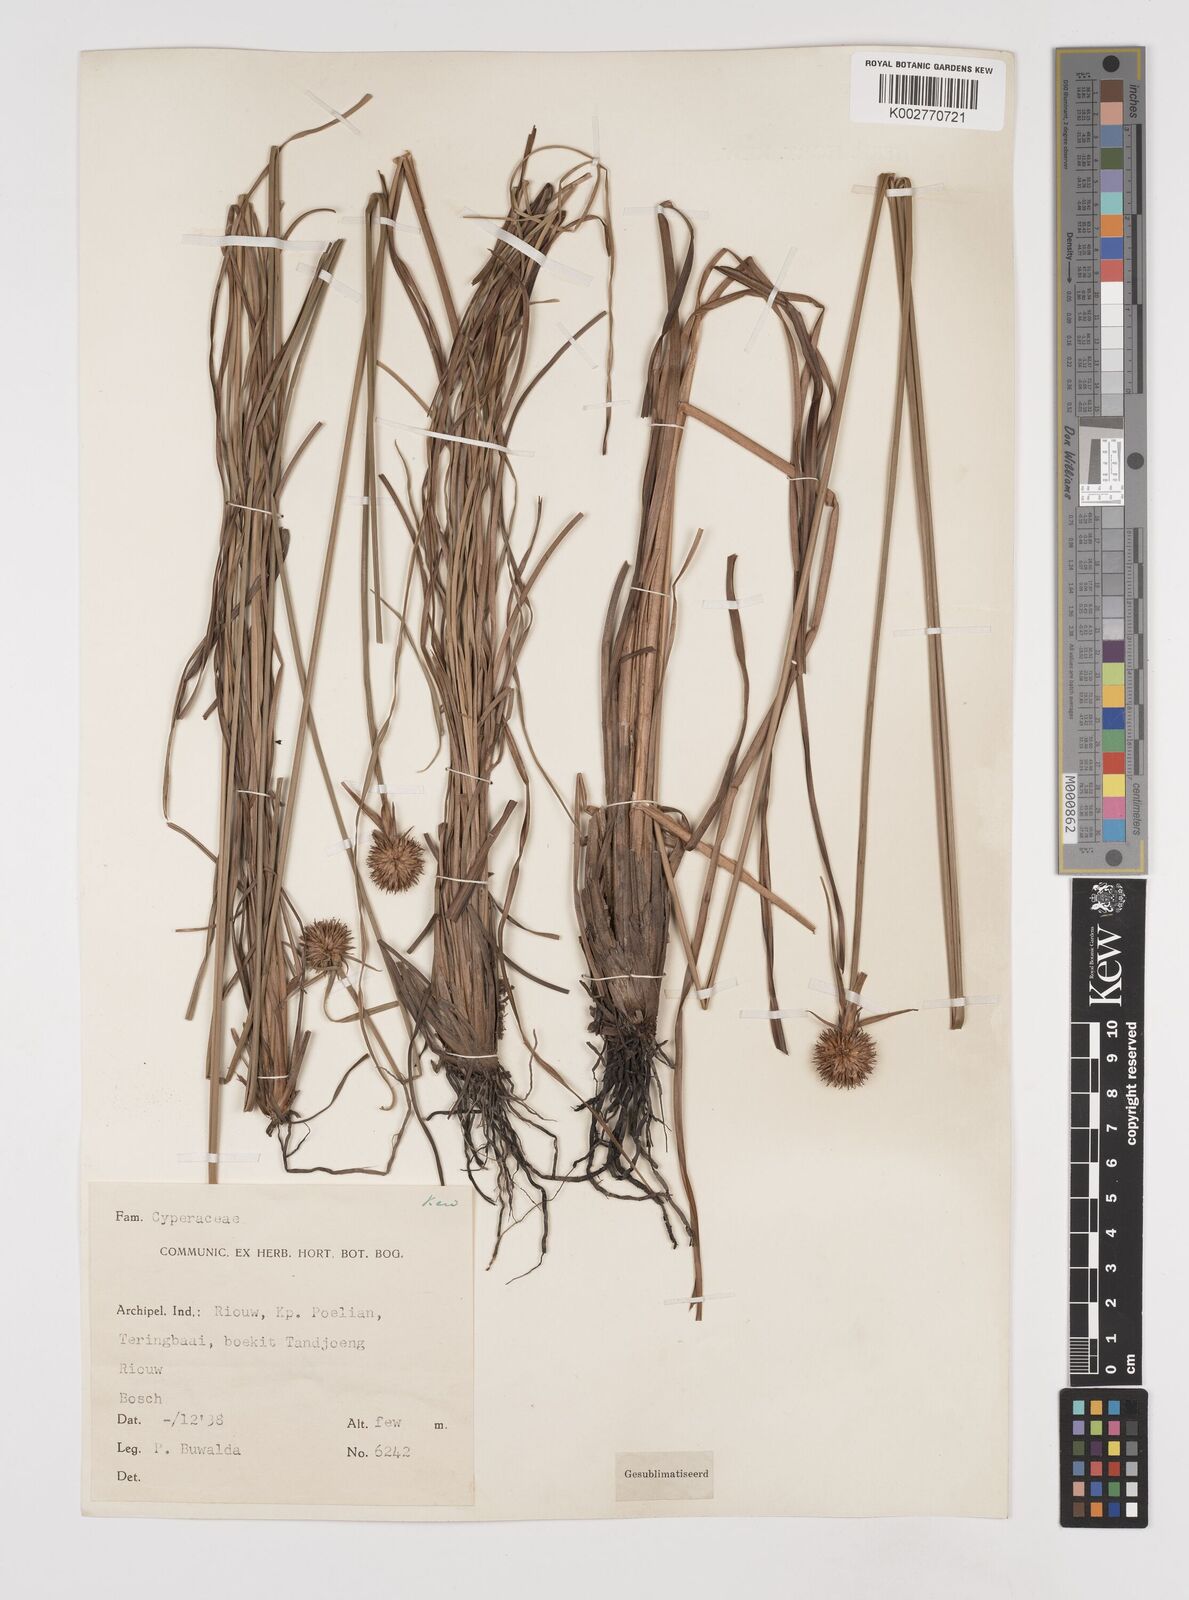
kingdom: Plantae
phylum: Tracheophyta
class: Liliopsida
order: Poales
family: Cyperaceae
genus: Rhynchospora
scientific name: Rhynchospora rubra
